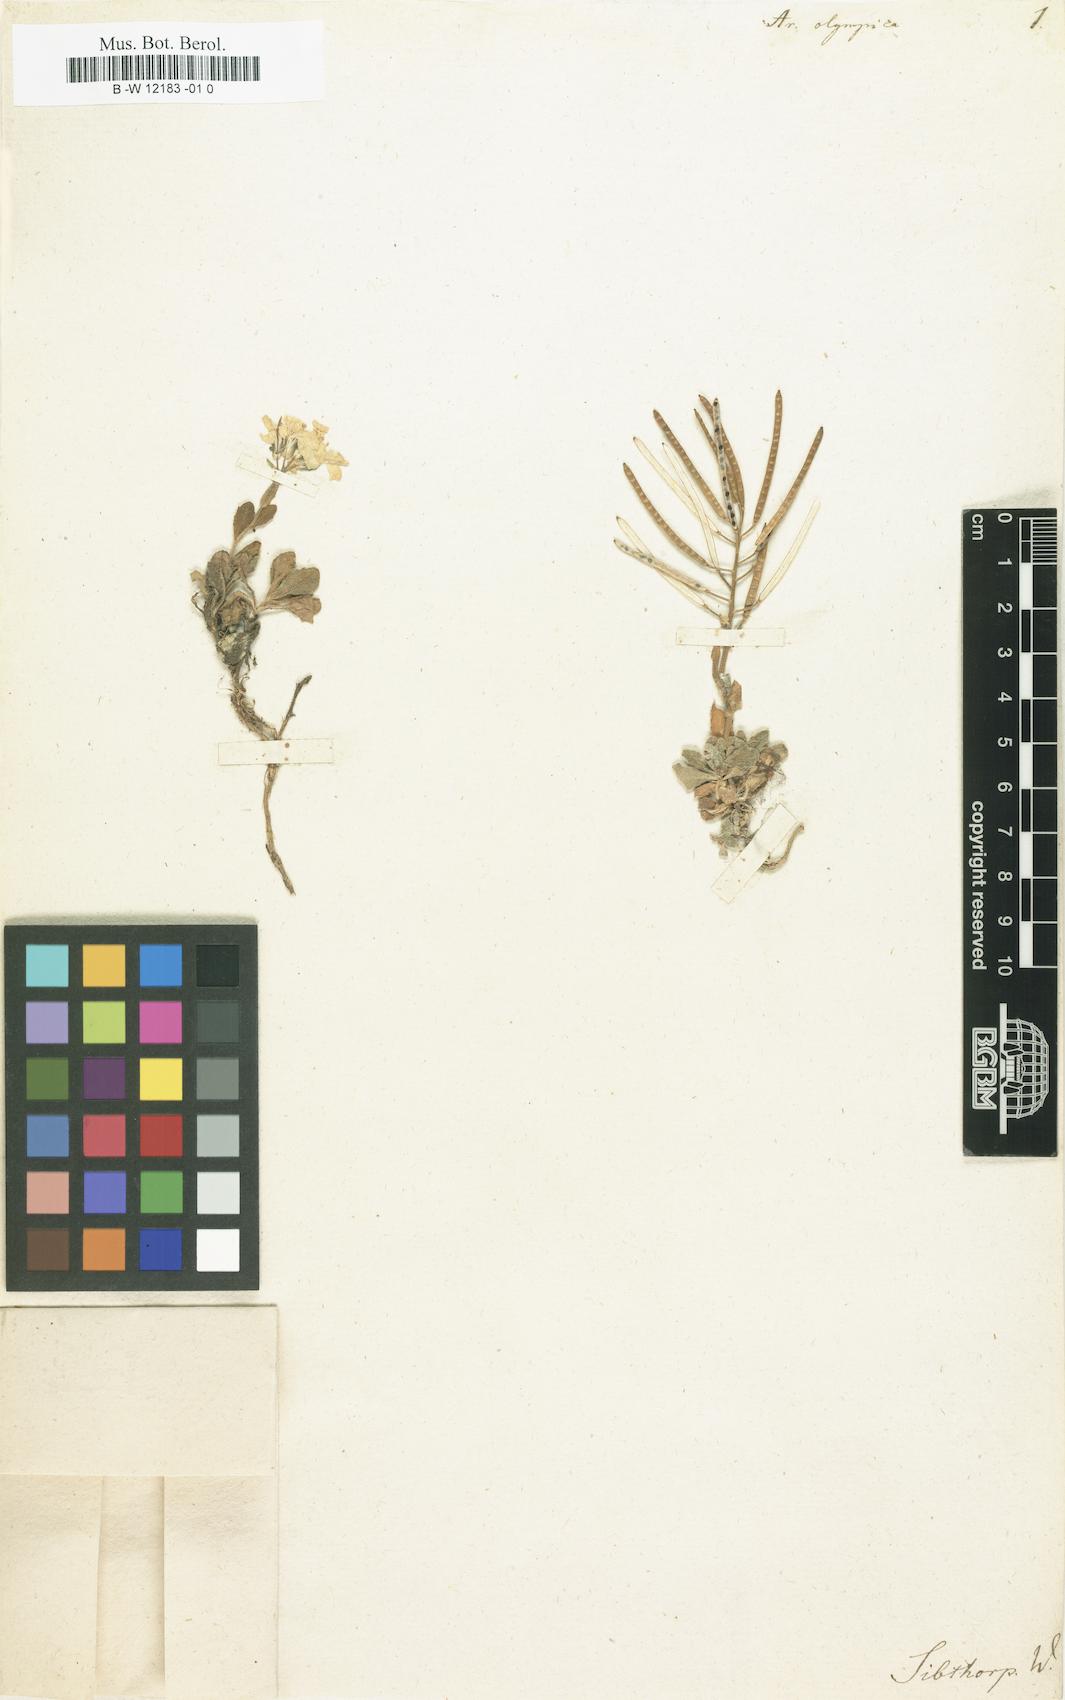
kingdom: Plantae
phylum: Tracheophyta
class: Magnoliopsida
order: Brassicales
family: Brassicaceae
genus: Arabis
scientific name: Arabis olympica
